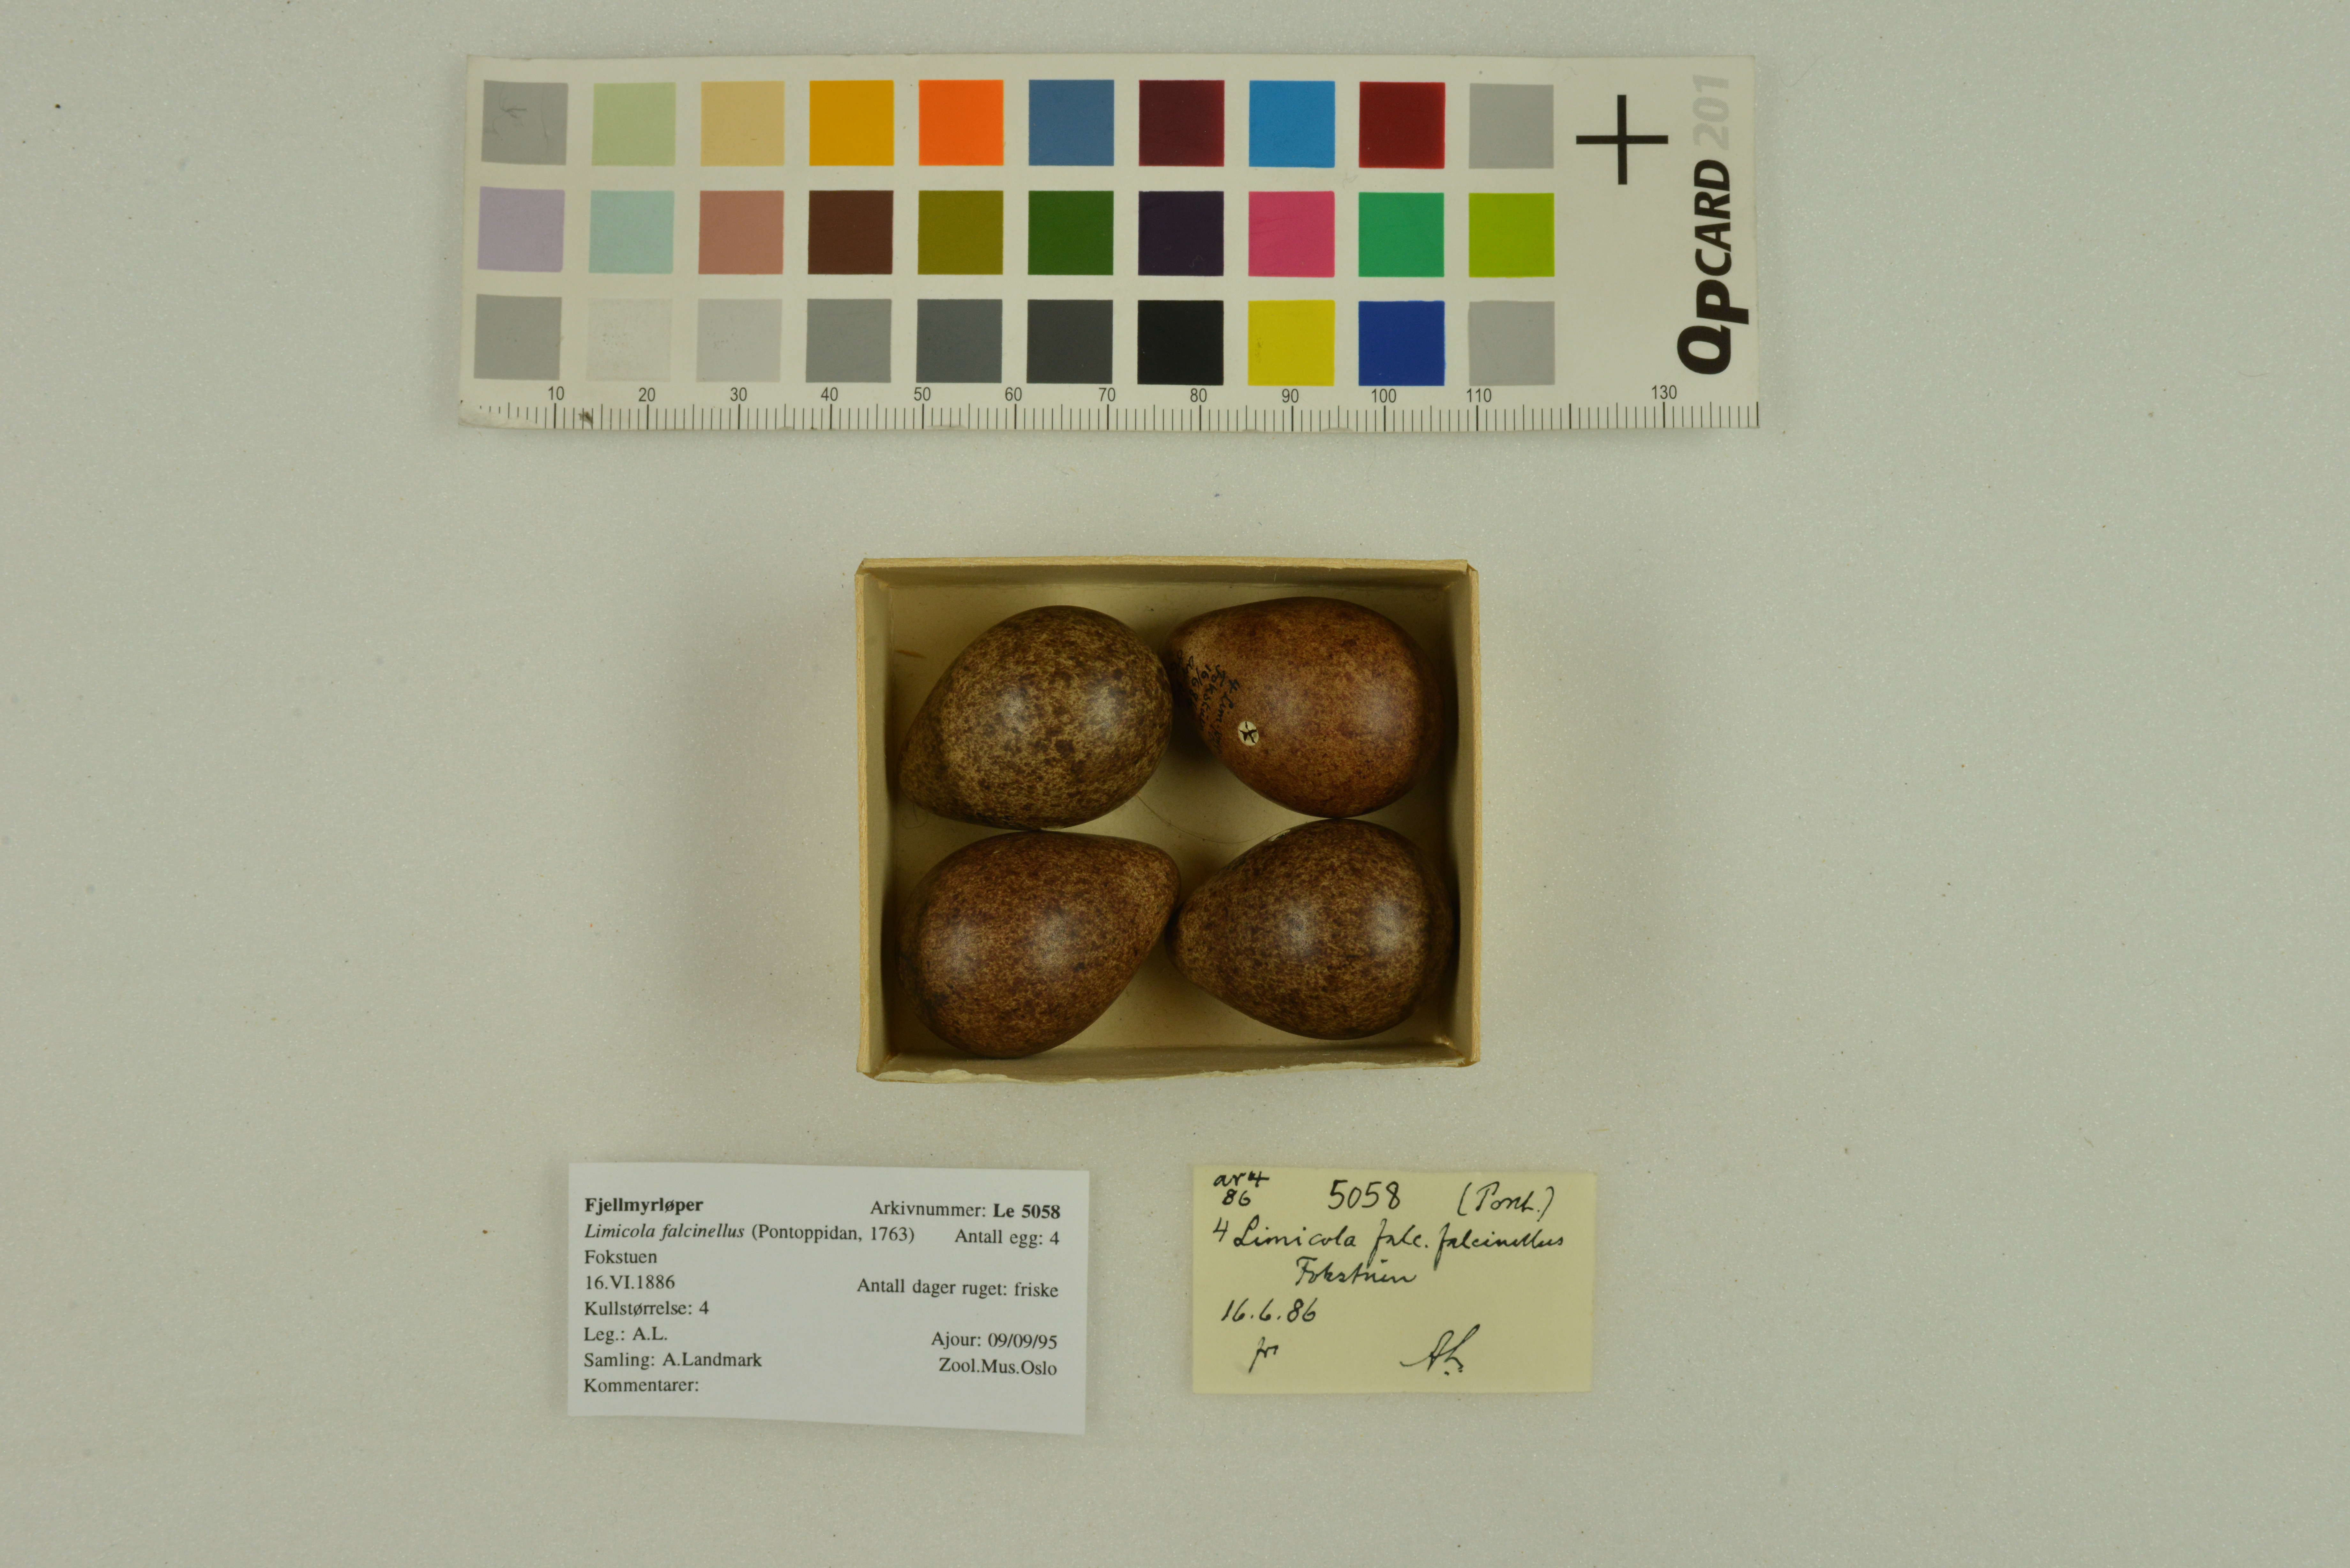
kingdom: Animalia
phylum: Chordata
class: Aves
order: Charadriiformes
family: Scolopacidae
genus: Calidris
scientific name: Calidris falcinellus
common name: Broad-billed sandpiper
